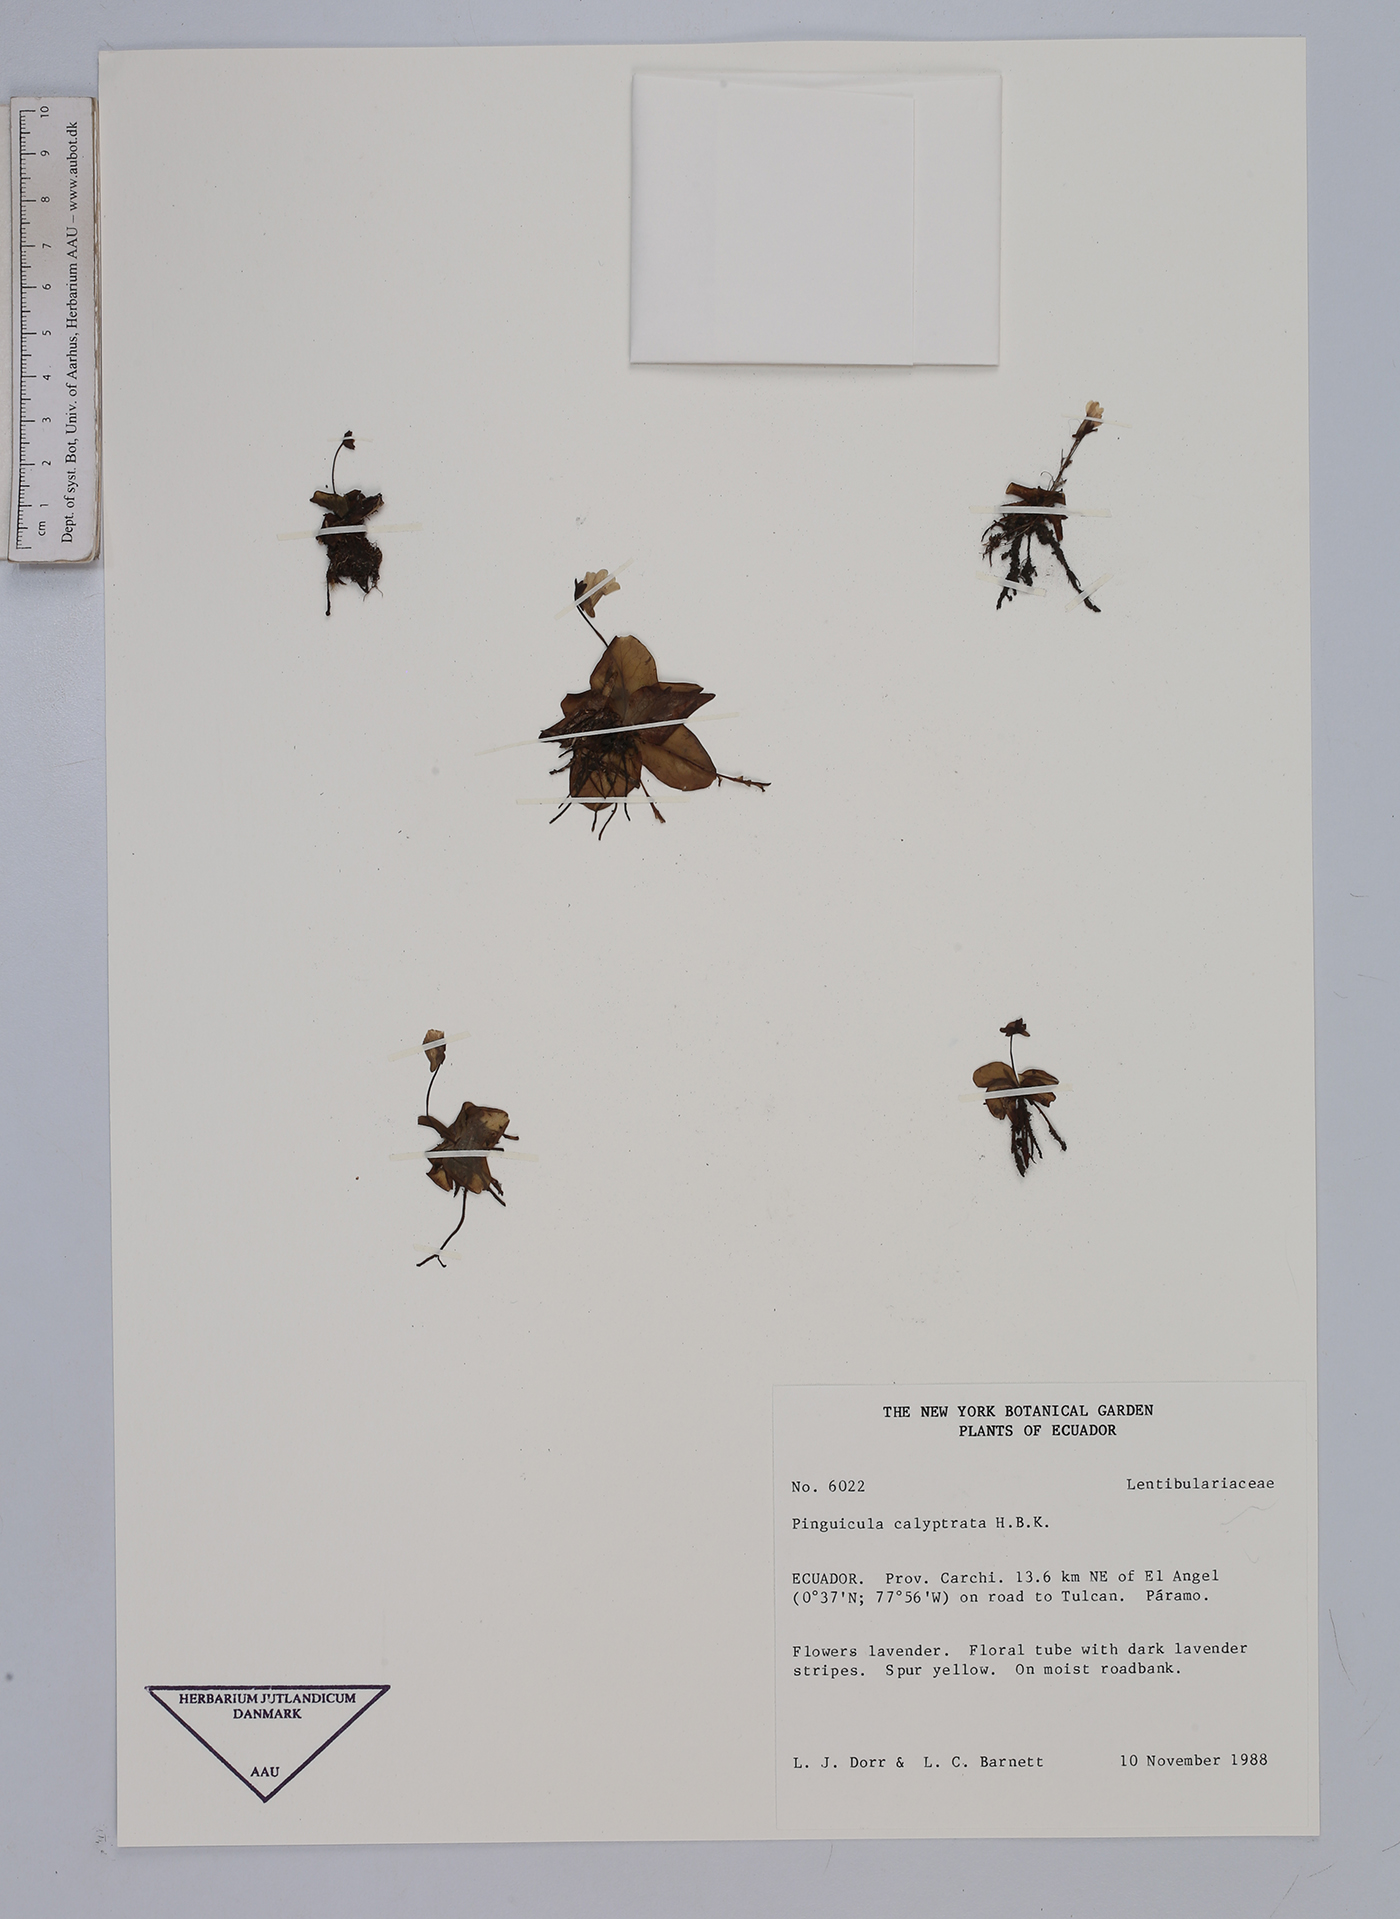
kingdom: Plantae
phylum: Tracheophyta
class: Magnoliopsida
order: Lamiales
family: Lentibulariaceae
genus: Pinguicula
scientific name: Pinguicula calyptrata
